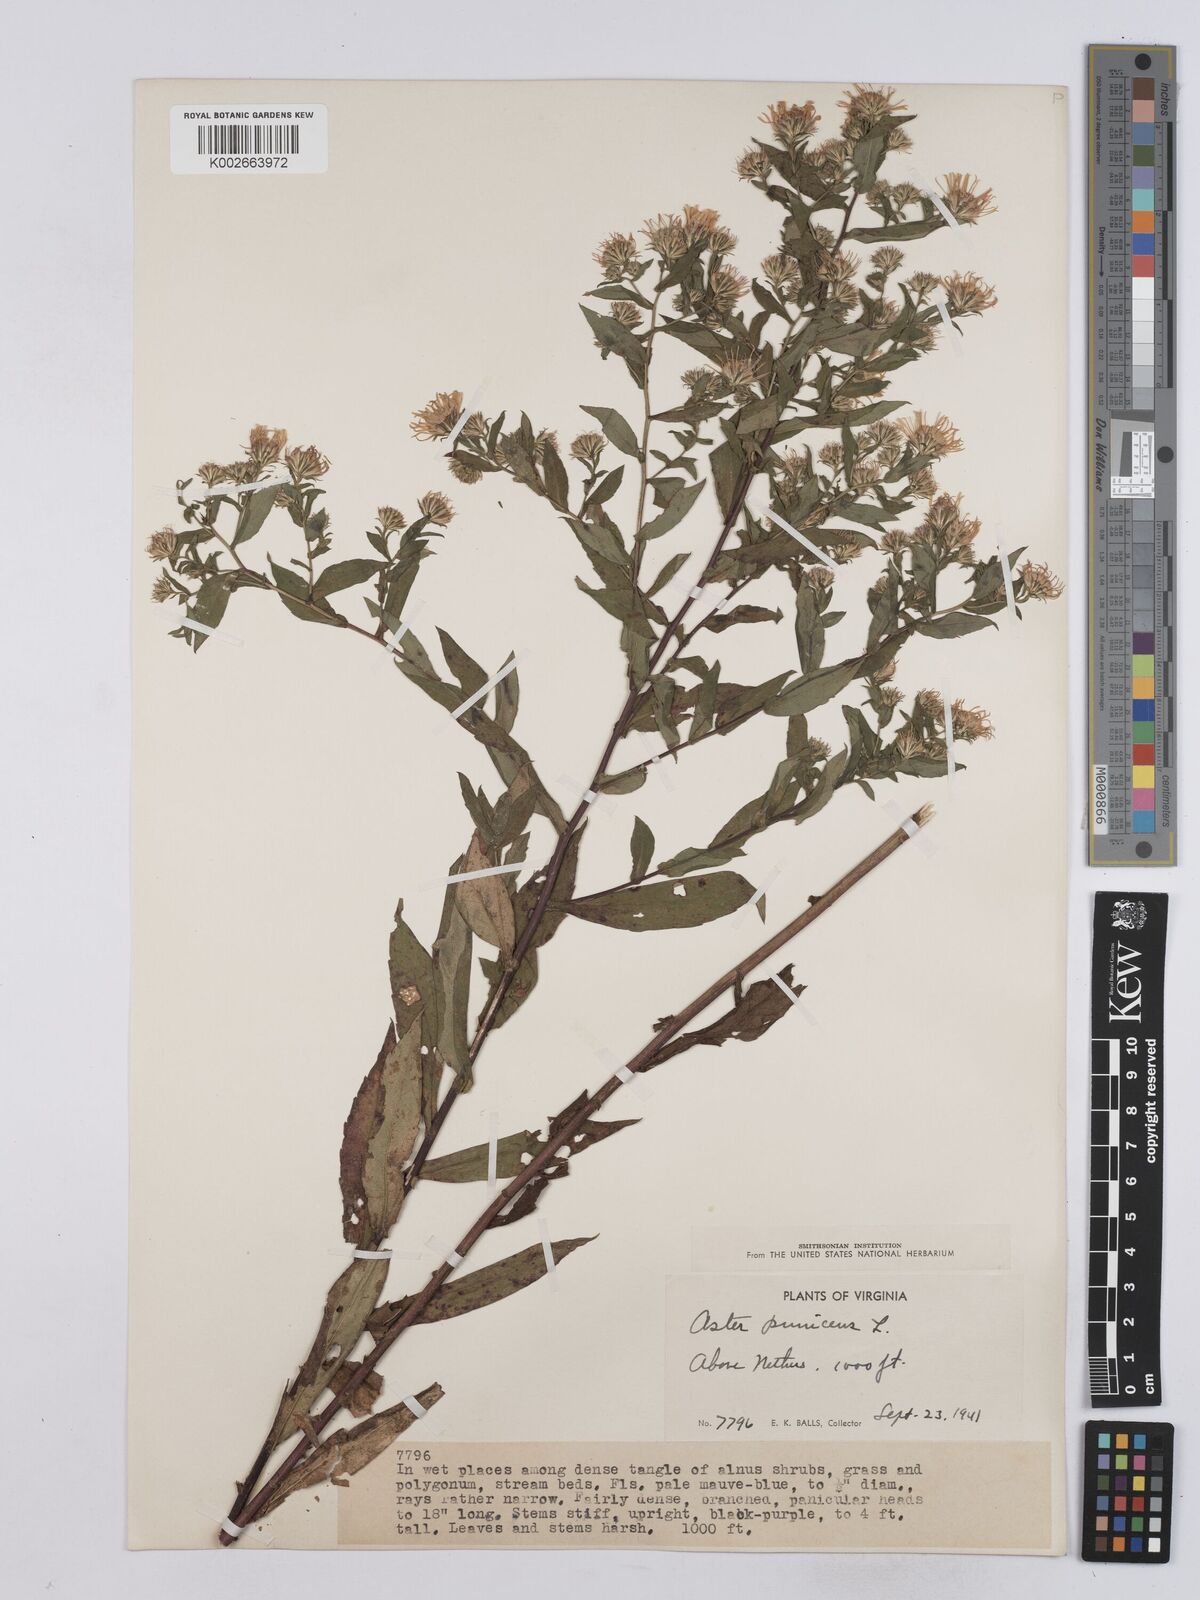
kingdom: Plantae
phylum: Tracheophyta
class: Magnoliopsida
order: Asterales
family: Asteraceae
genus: Symphyotrichum
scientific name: Symphyotrichum puniceum
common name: Bog aster
